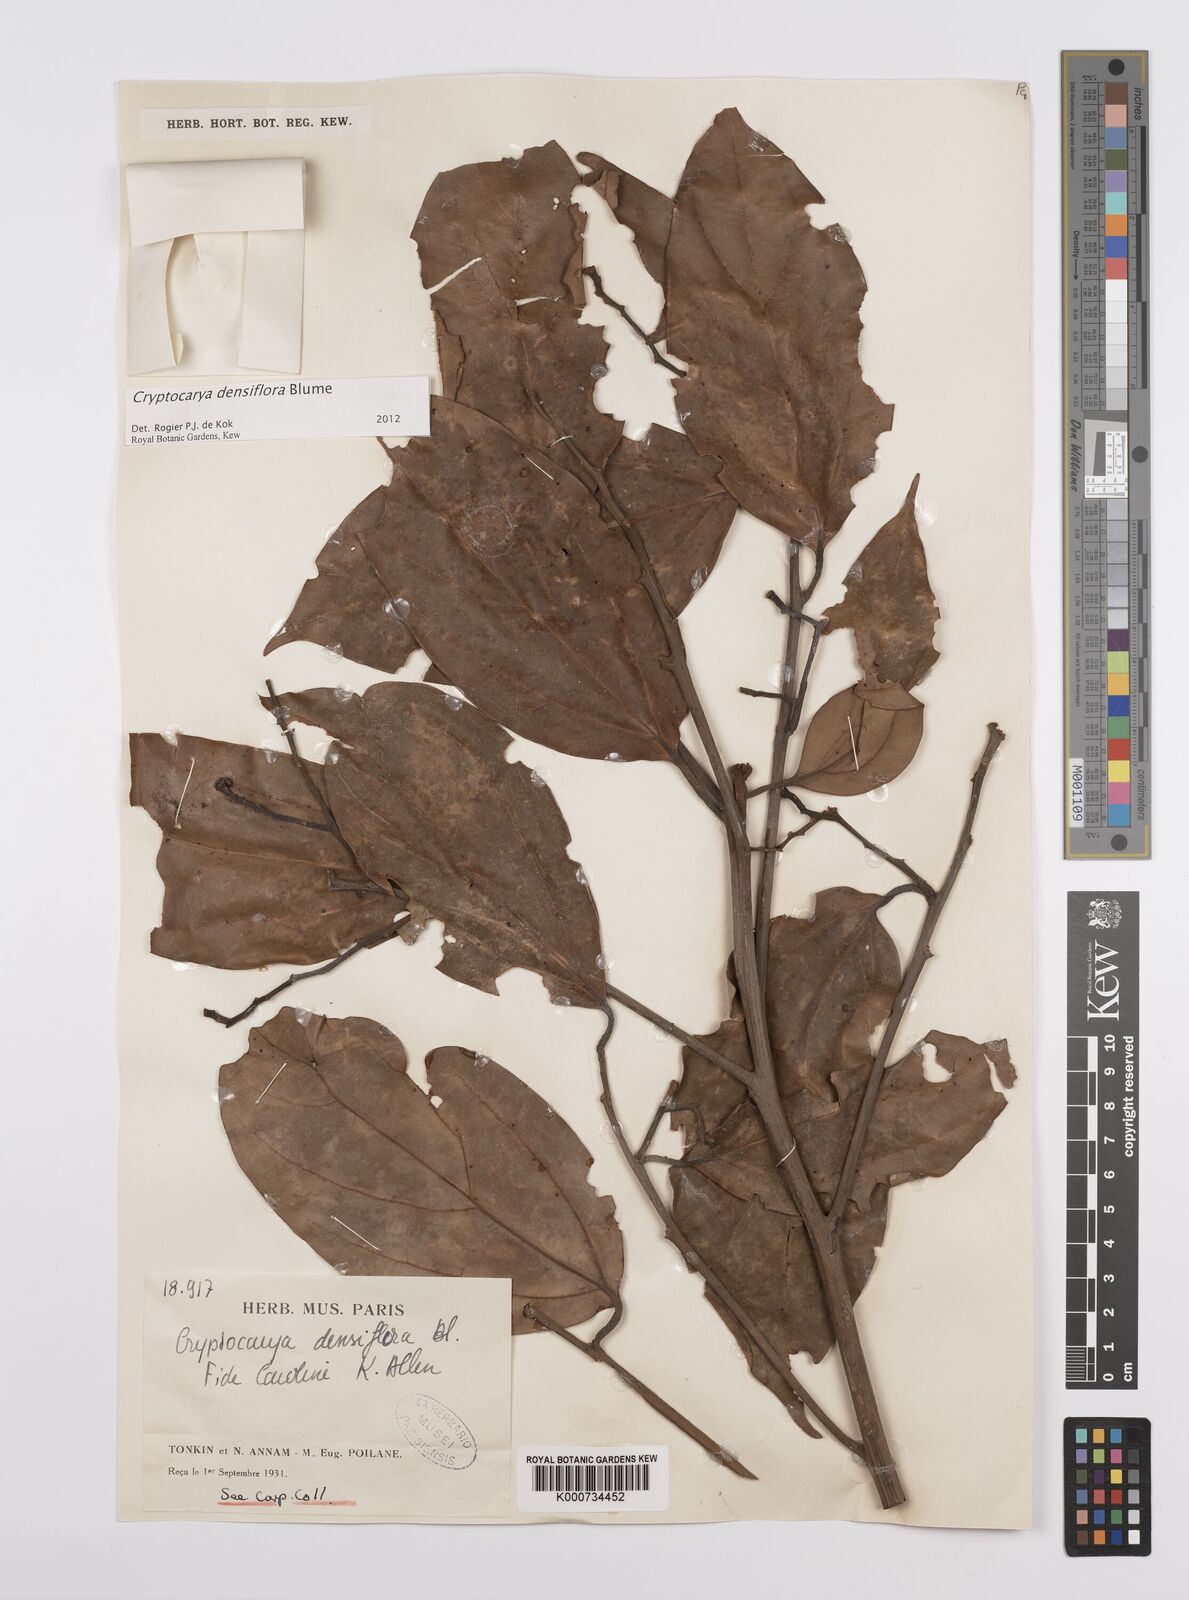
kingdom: Plantae
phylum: Tracheophyta
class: Magnoliopsida
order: Laurales
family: Lauraceae
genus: Cryptocarya
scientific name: Cryptocarya densiflora
